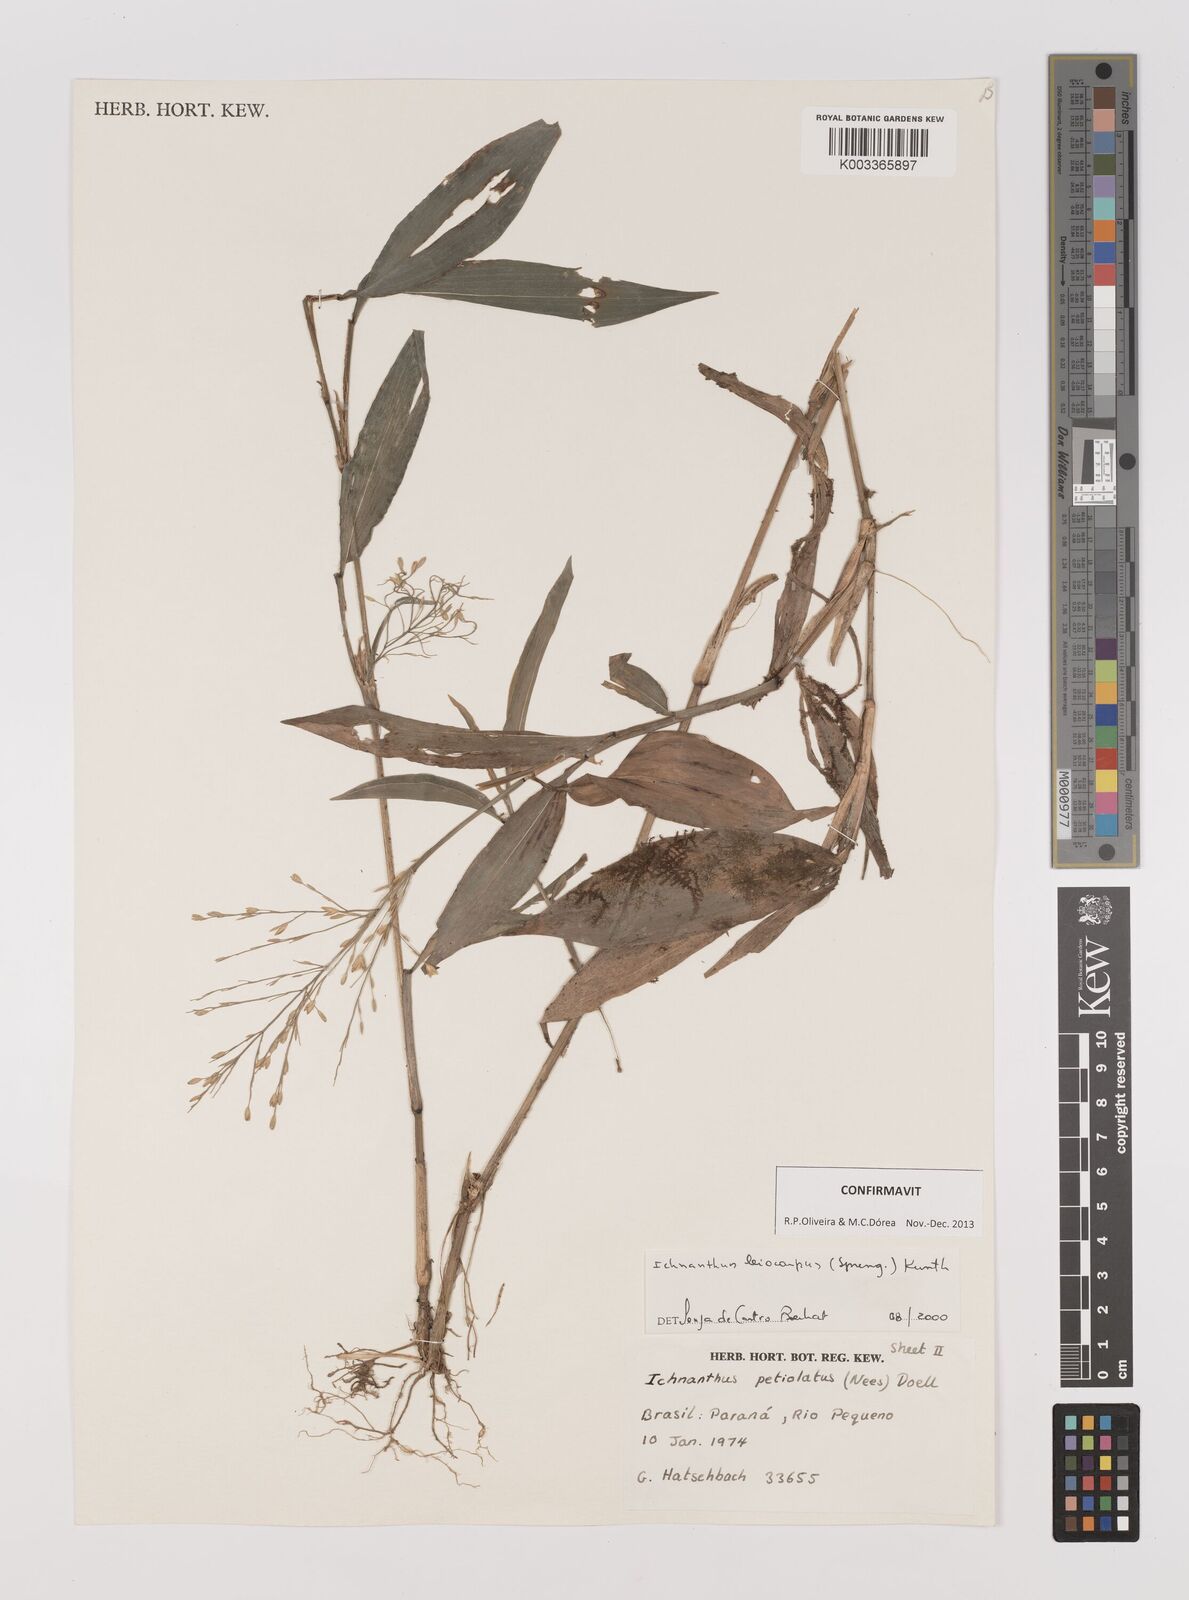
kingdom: Plantae
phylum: Tracheophyta
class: Liliopsida
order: Poales
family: Poaceae
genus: Ichnanthus
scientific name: Ichnanthus leiocarpus
